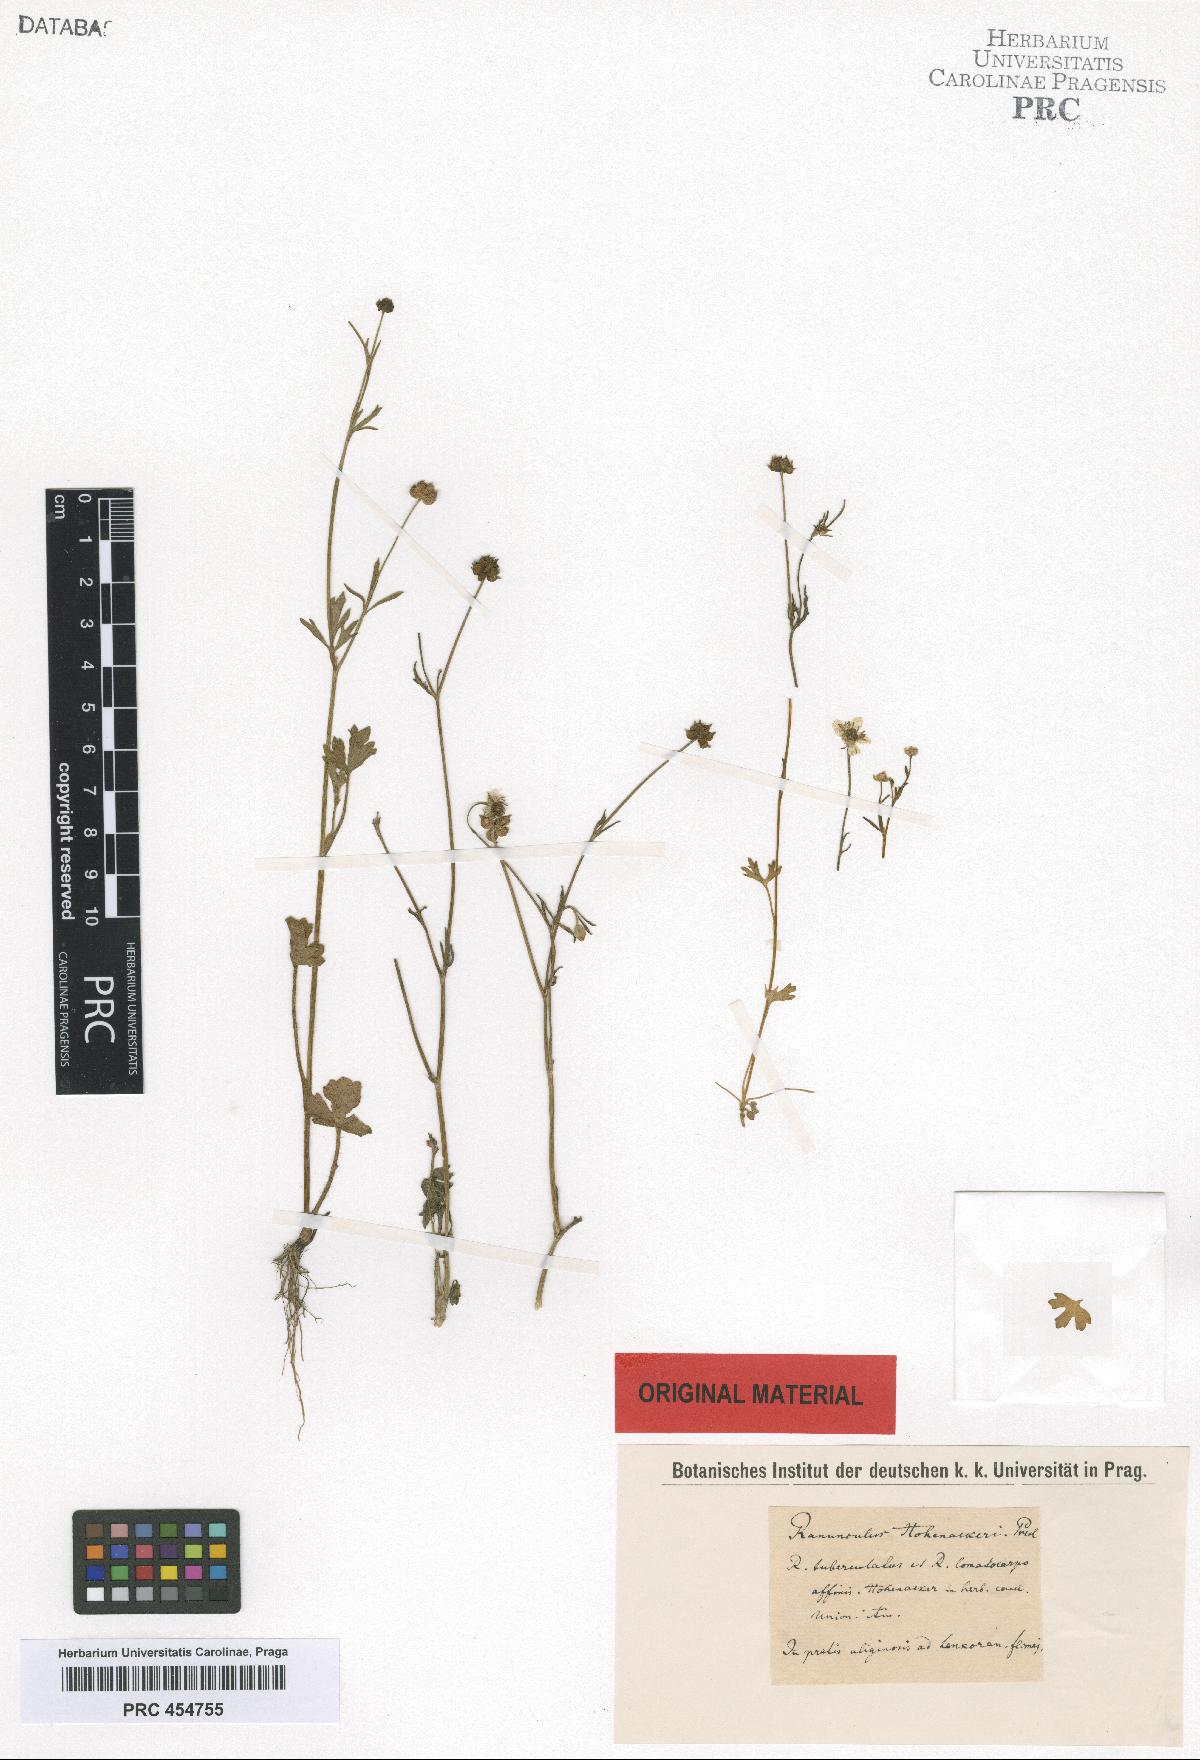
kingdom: Plantae
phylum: Tracheophyta
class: Magnoliopsida
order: Ranunculales
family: Ranunculaceae
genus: Ranunculus
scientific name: Ranunculus hohenackeri
